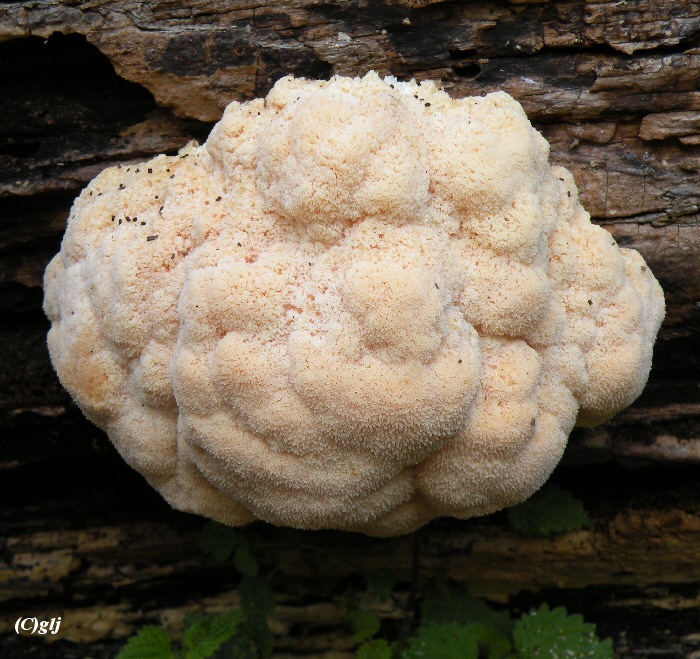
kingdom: Fungi
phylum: Basidiomycota
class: Agaricomycetes
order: Russulales
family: Hericiaceae
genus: Hericium
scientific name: Hericium erinaceus
